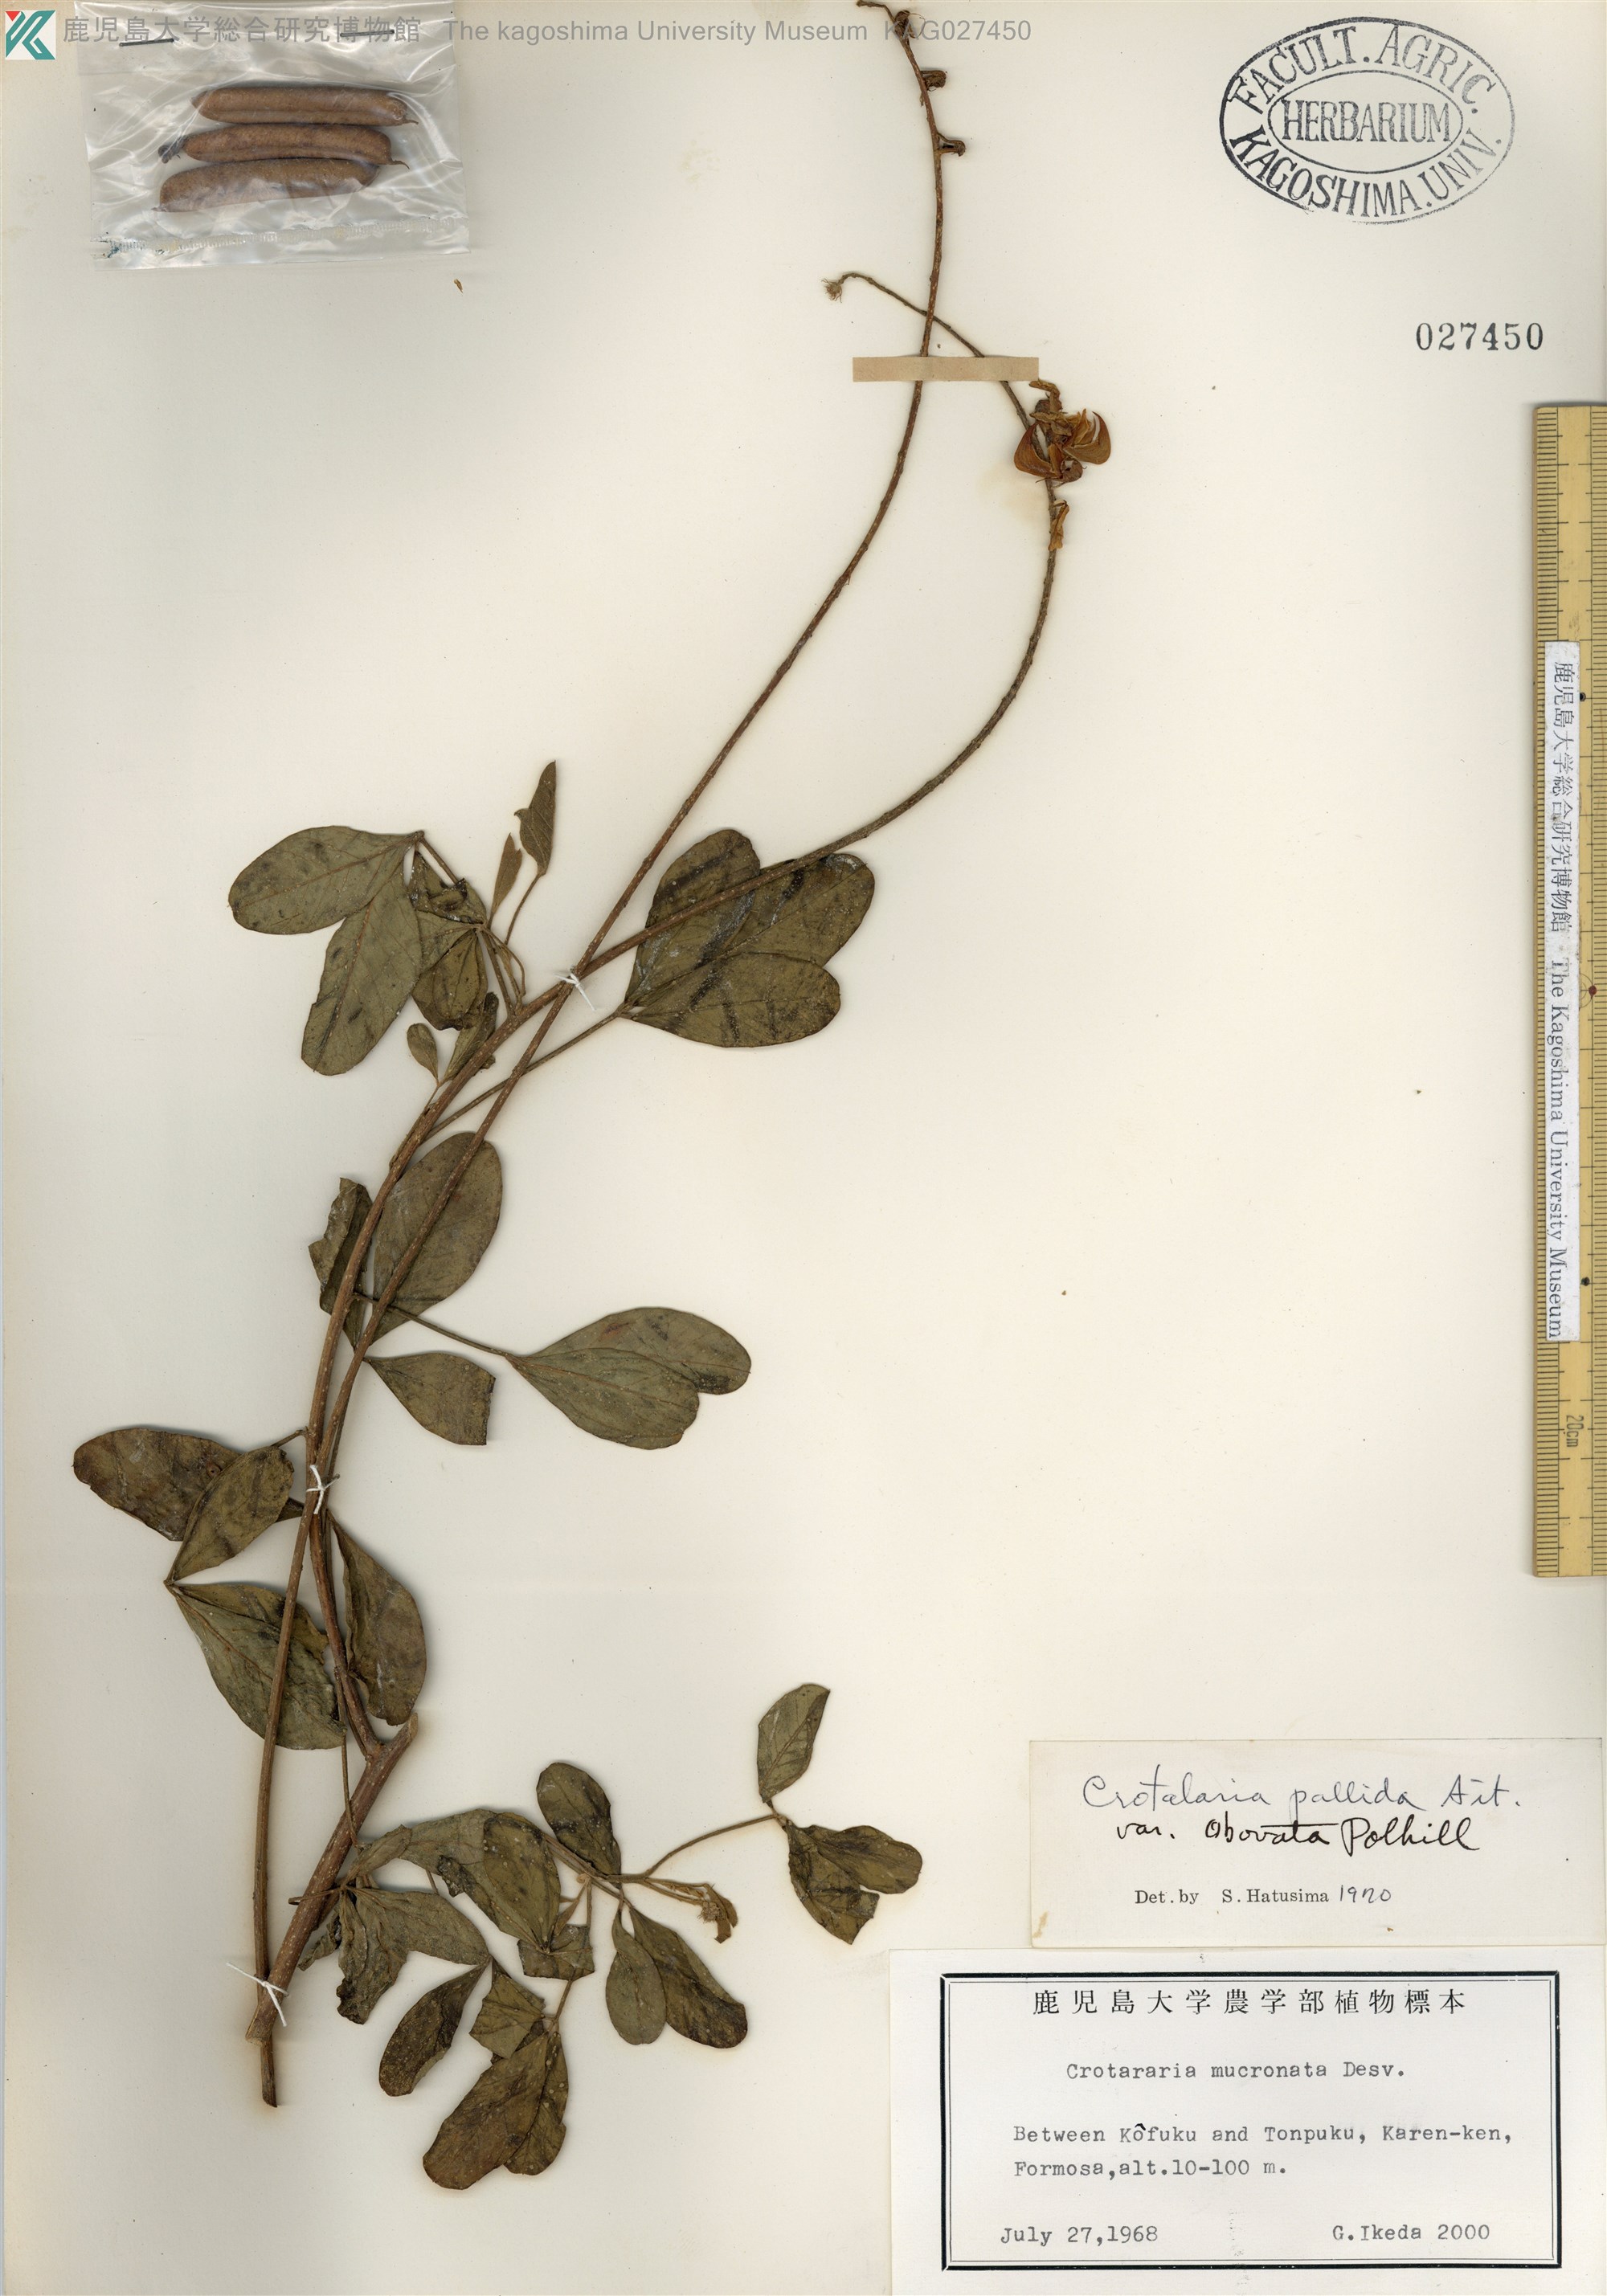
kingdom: Plantae
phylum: Tracheophyta
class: Magnoliopsida
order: Fabales
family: Fabaceae
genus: Crotalaria
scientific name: Crotalaria pallida
